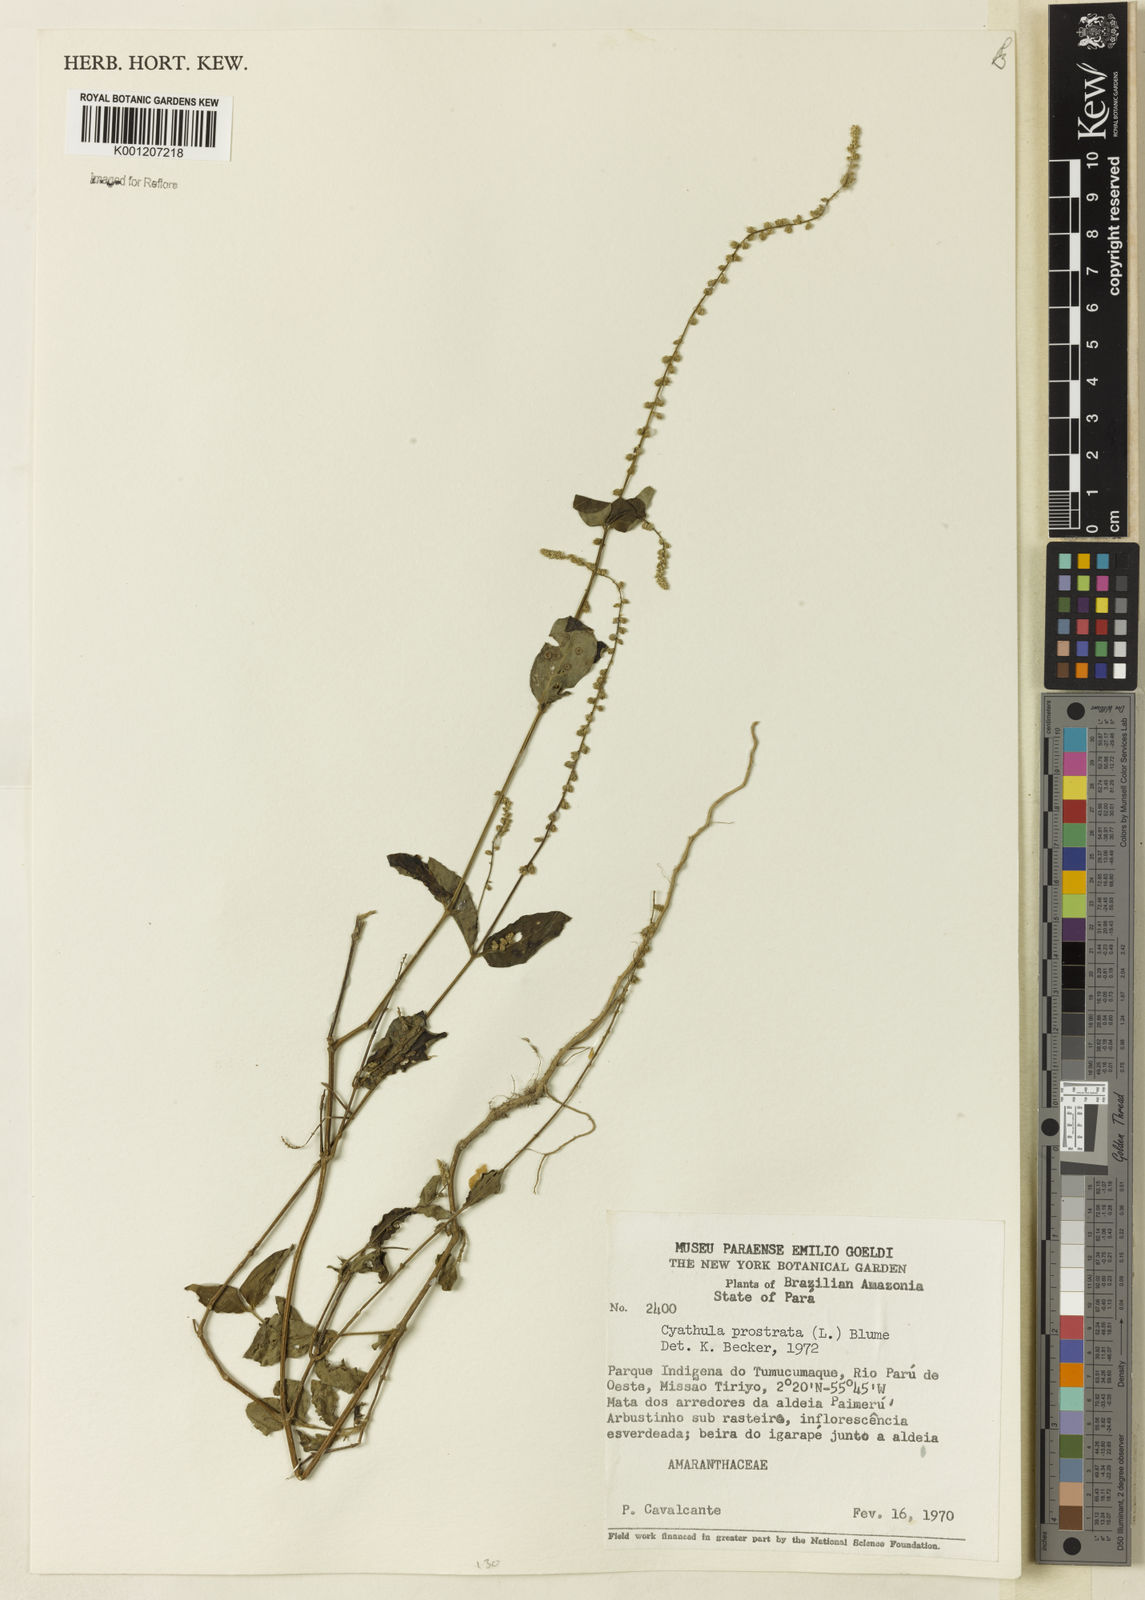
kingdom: Plantae
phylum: Tracheophyta
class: Magnoliopsida
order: Caryophyllales
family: Amaranthaceae
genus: Cyathula
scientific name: Cyathula prostrata
